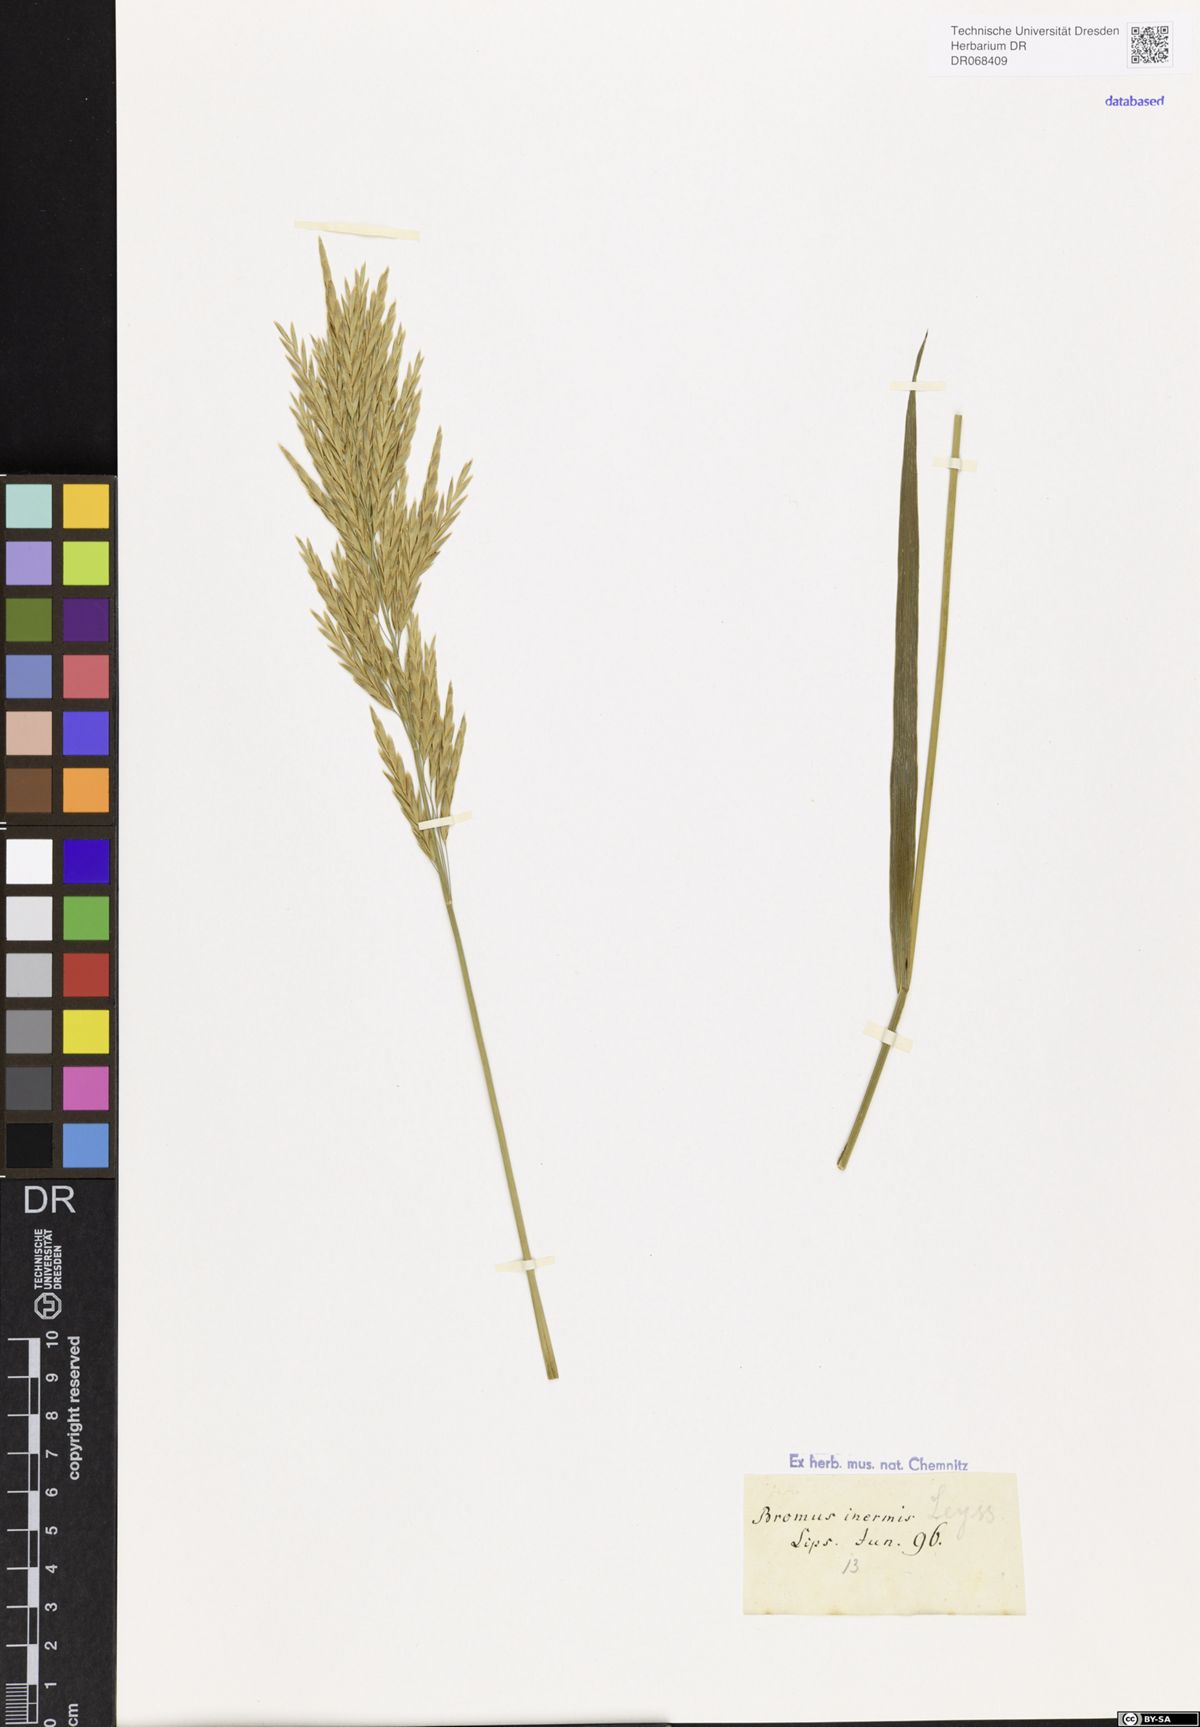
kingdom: Plantae
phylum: Tracheophyta
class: Liliopsida
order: Poales
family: Poaceae
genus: Bromus
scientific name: Bromus inermis
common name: Smooth brome
